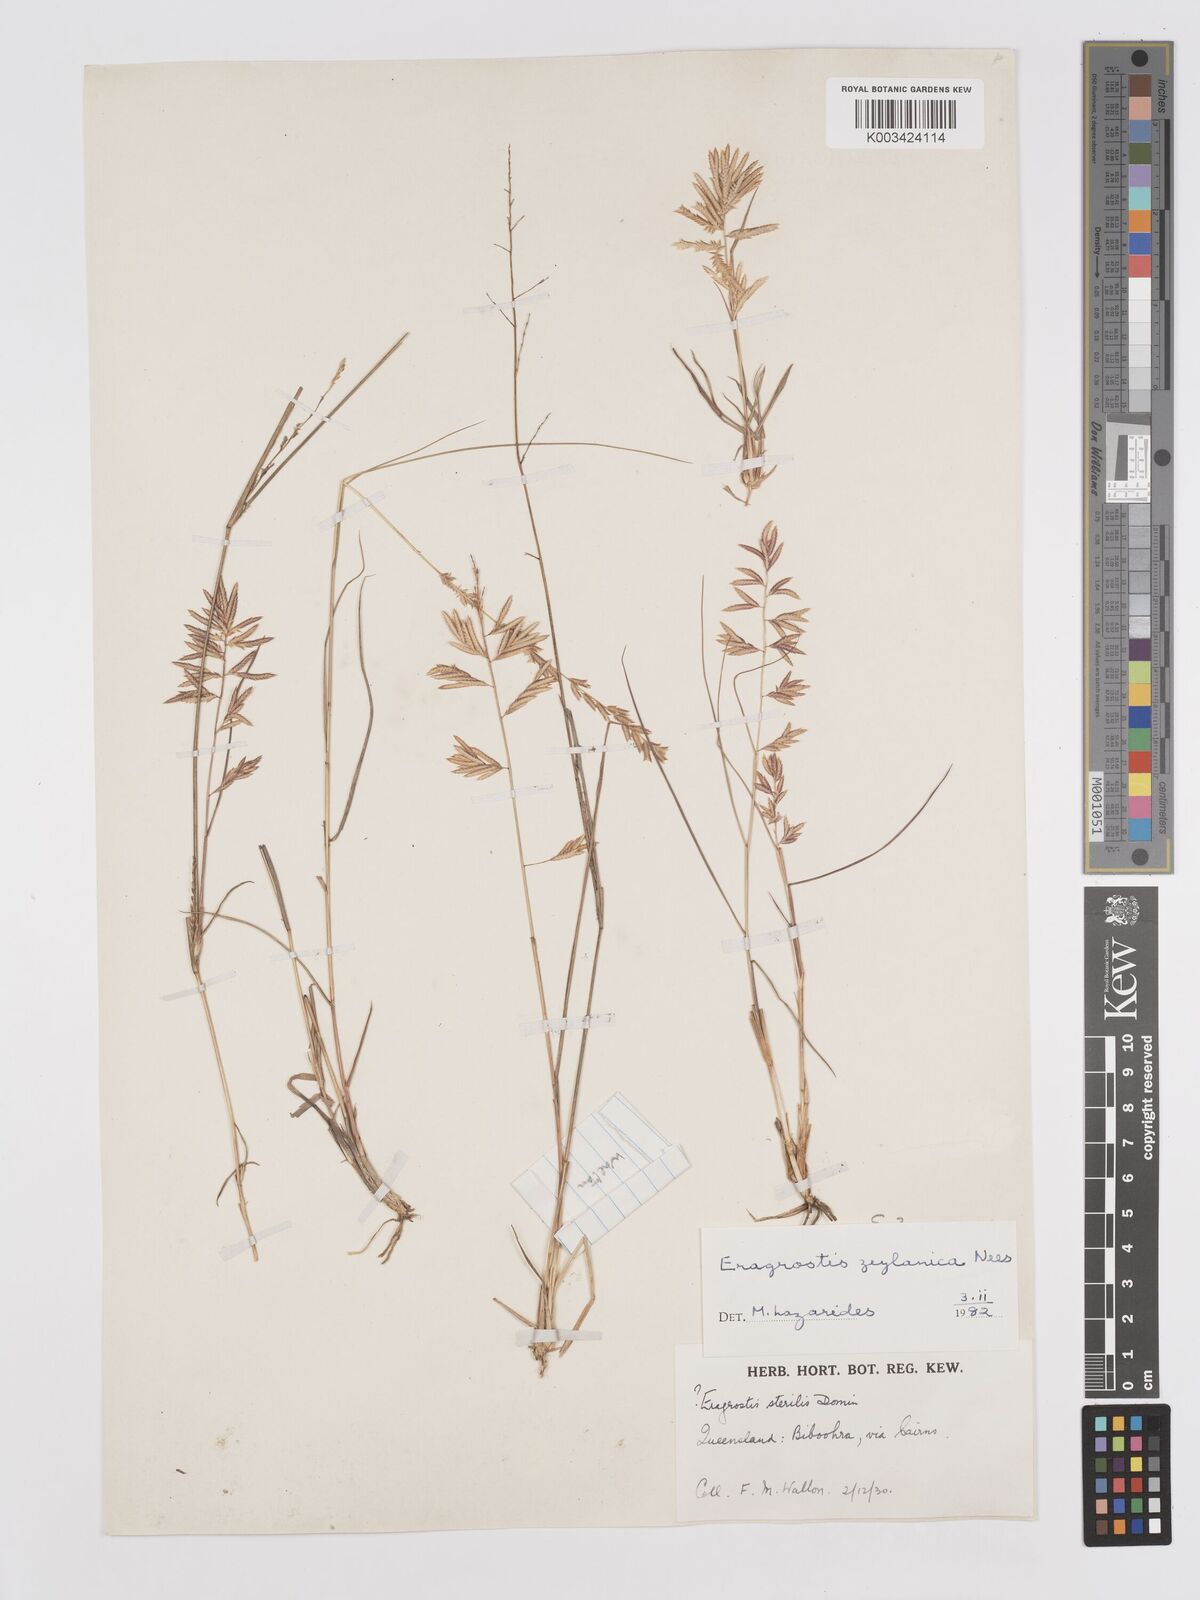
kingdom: Plantae
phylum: Tracheophyta
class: Liliopsida
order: Poales
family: Poaceae
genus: Eragrostis
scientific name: Eragrostis brownii
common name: Lovegrass
